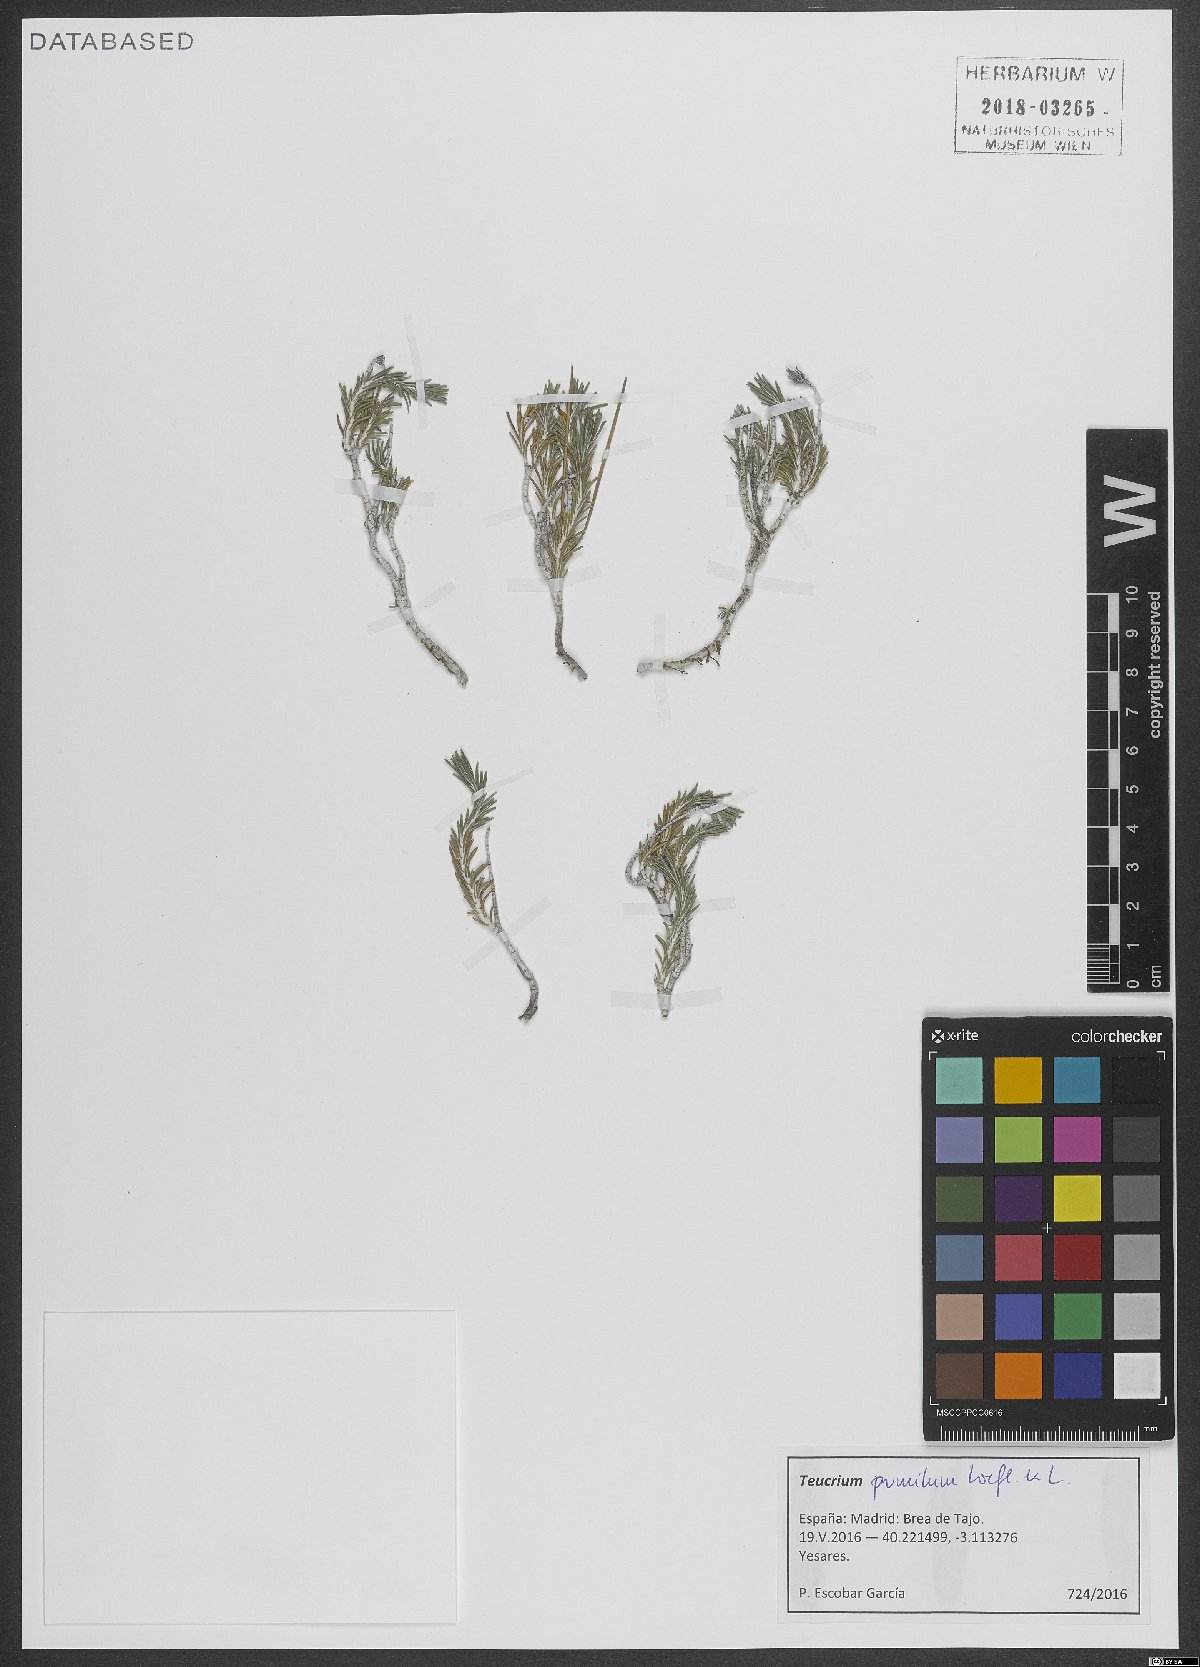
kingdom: Plantae
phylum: Tracheophyta
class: Magnoliopsida
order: Lamiales
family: Lamiaceae
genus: Teucrium
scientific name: Teucrium pumilum
